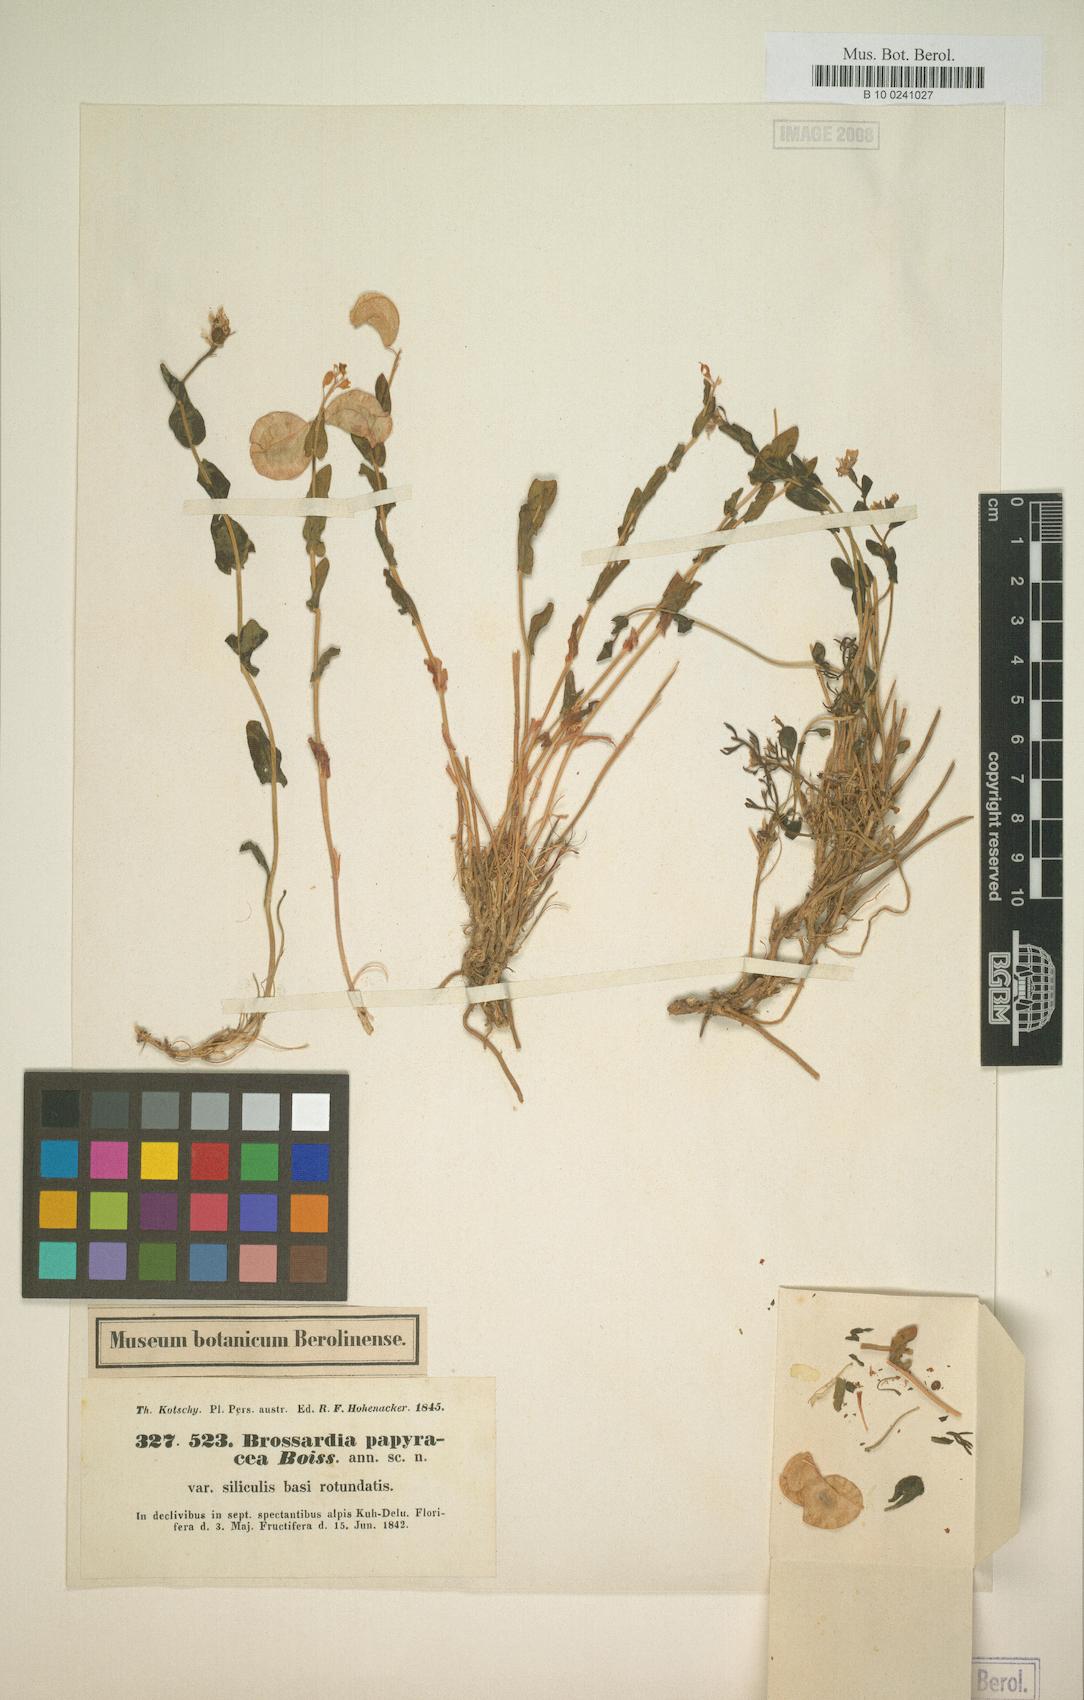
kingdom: Plantae
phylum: Tracheophyta
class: Magnoliopsida
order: Brassicales
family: Brassicaceae
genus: Noccaea
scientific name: Noccaea papyracea
